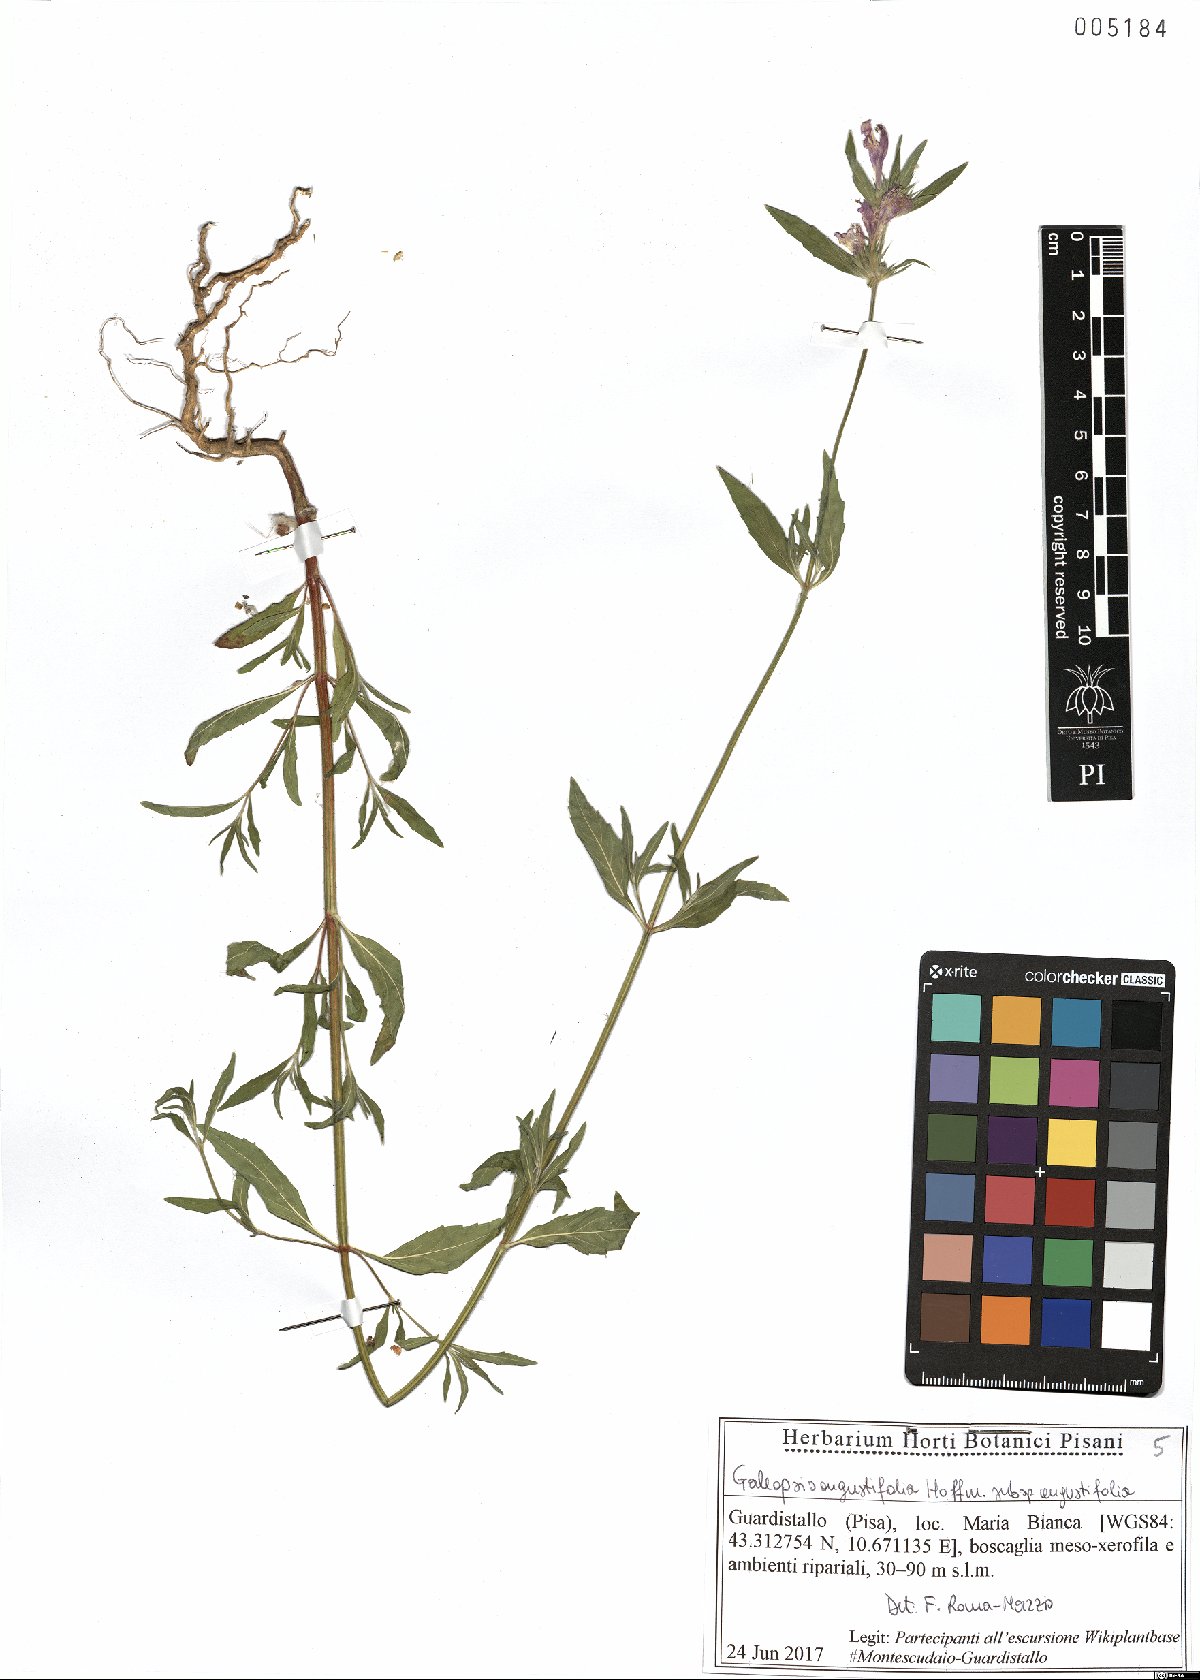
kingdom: Plantae
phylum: Tracheophyta
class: Magnoliopsida
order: Lamiales
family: Lamiaceae
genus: Galeopsis
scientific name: Galeopsis angustifolia
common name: Red hemp-nettle
